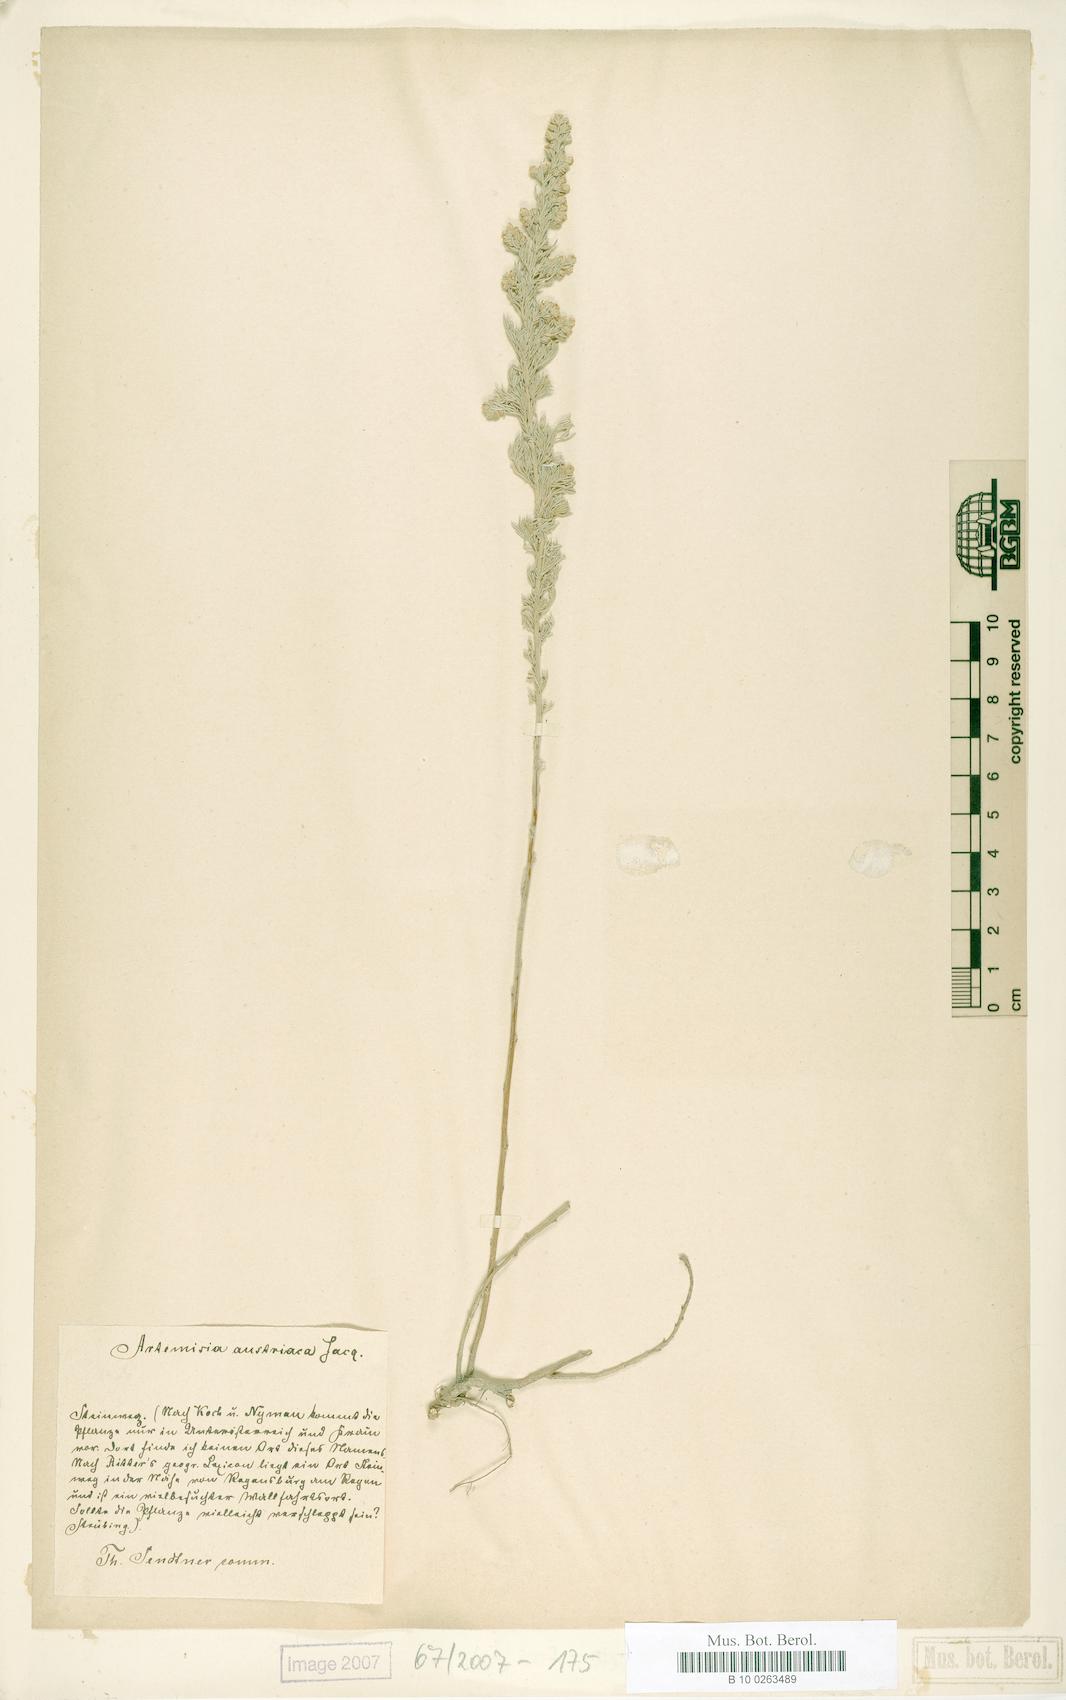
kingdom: Plantae
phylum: Tracheophyta
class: Magnoliopsida
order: Asterales
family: Asteraceae
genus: Artemisia
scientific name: Artemisia austriaca
